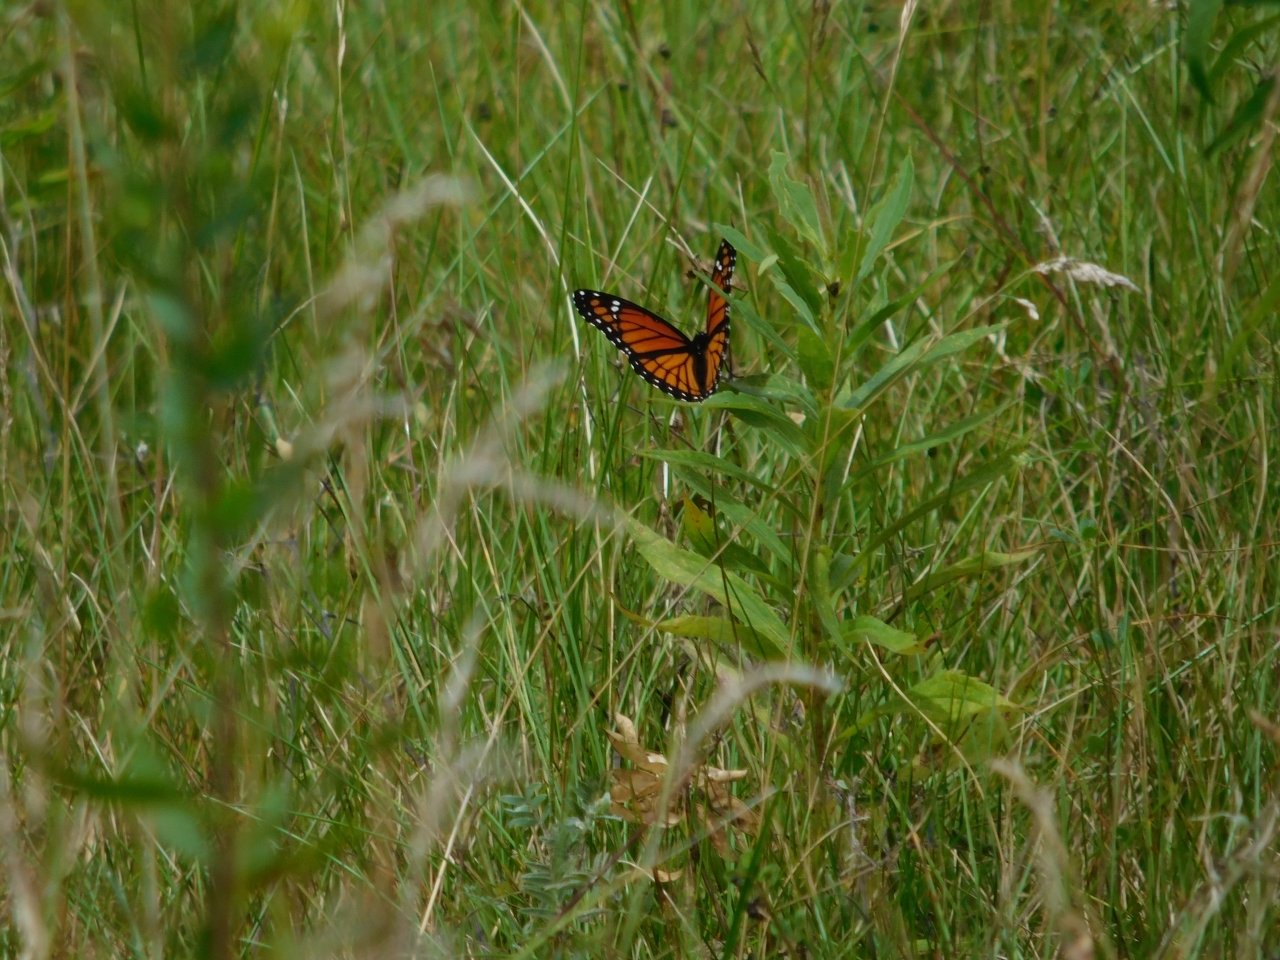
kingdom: Animalia
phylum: Arthropoda
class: Insecta
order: Lepidoptera
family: Nymphalidae
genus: Limenitis
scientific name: Limenitis archippus
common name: Viceroy
